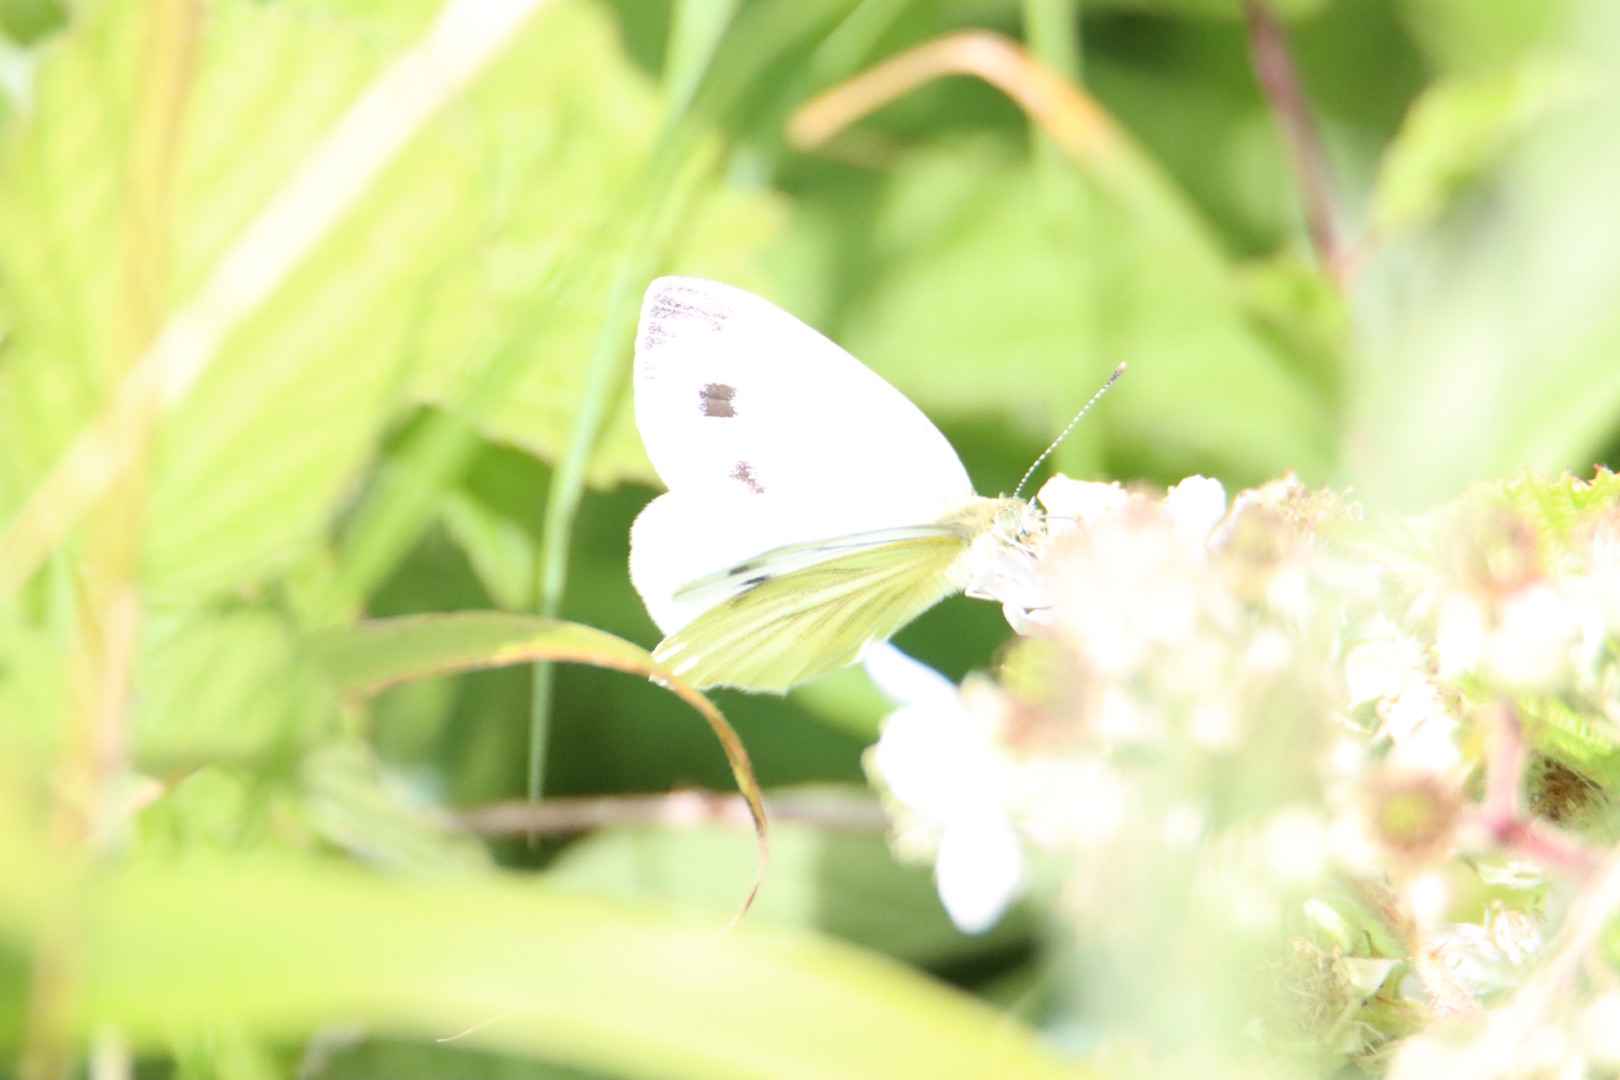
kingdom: Animalia
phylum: Arthropoda
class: Insecta
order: Lepidoptera
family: Pieridae
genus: Pieris
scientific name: Pieris napi
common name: Grønåret kålsommerfugl
